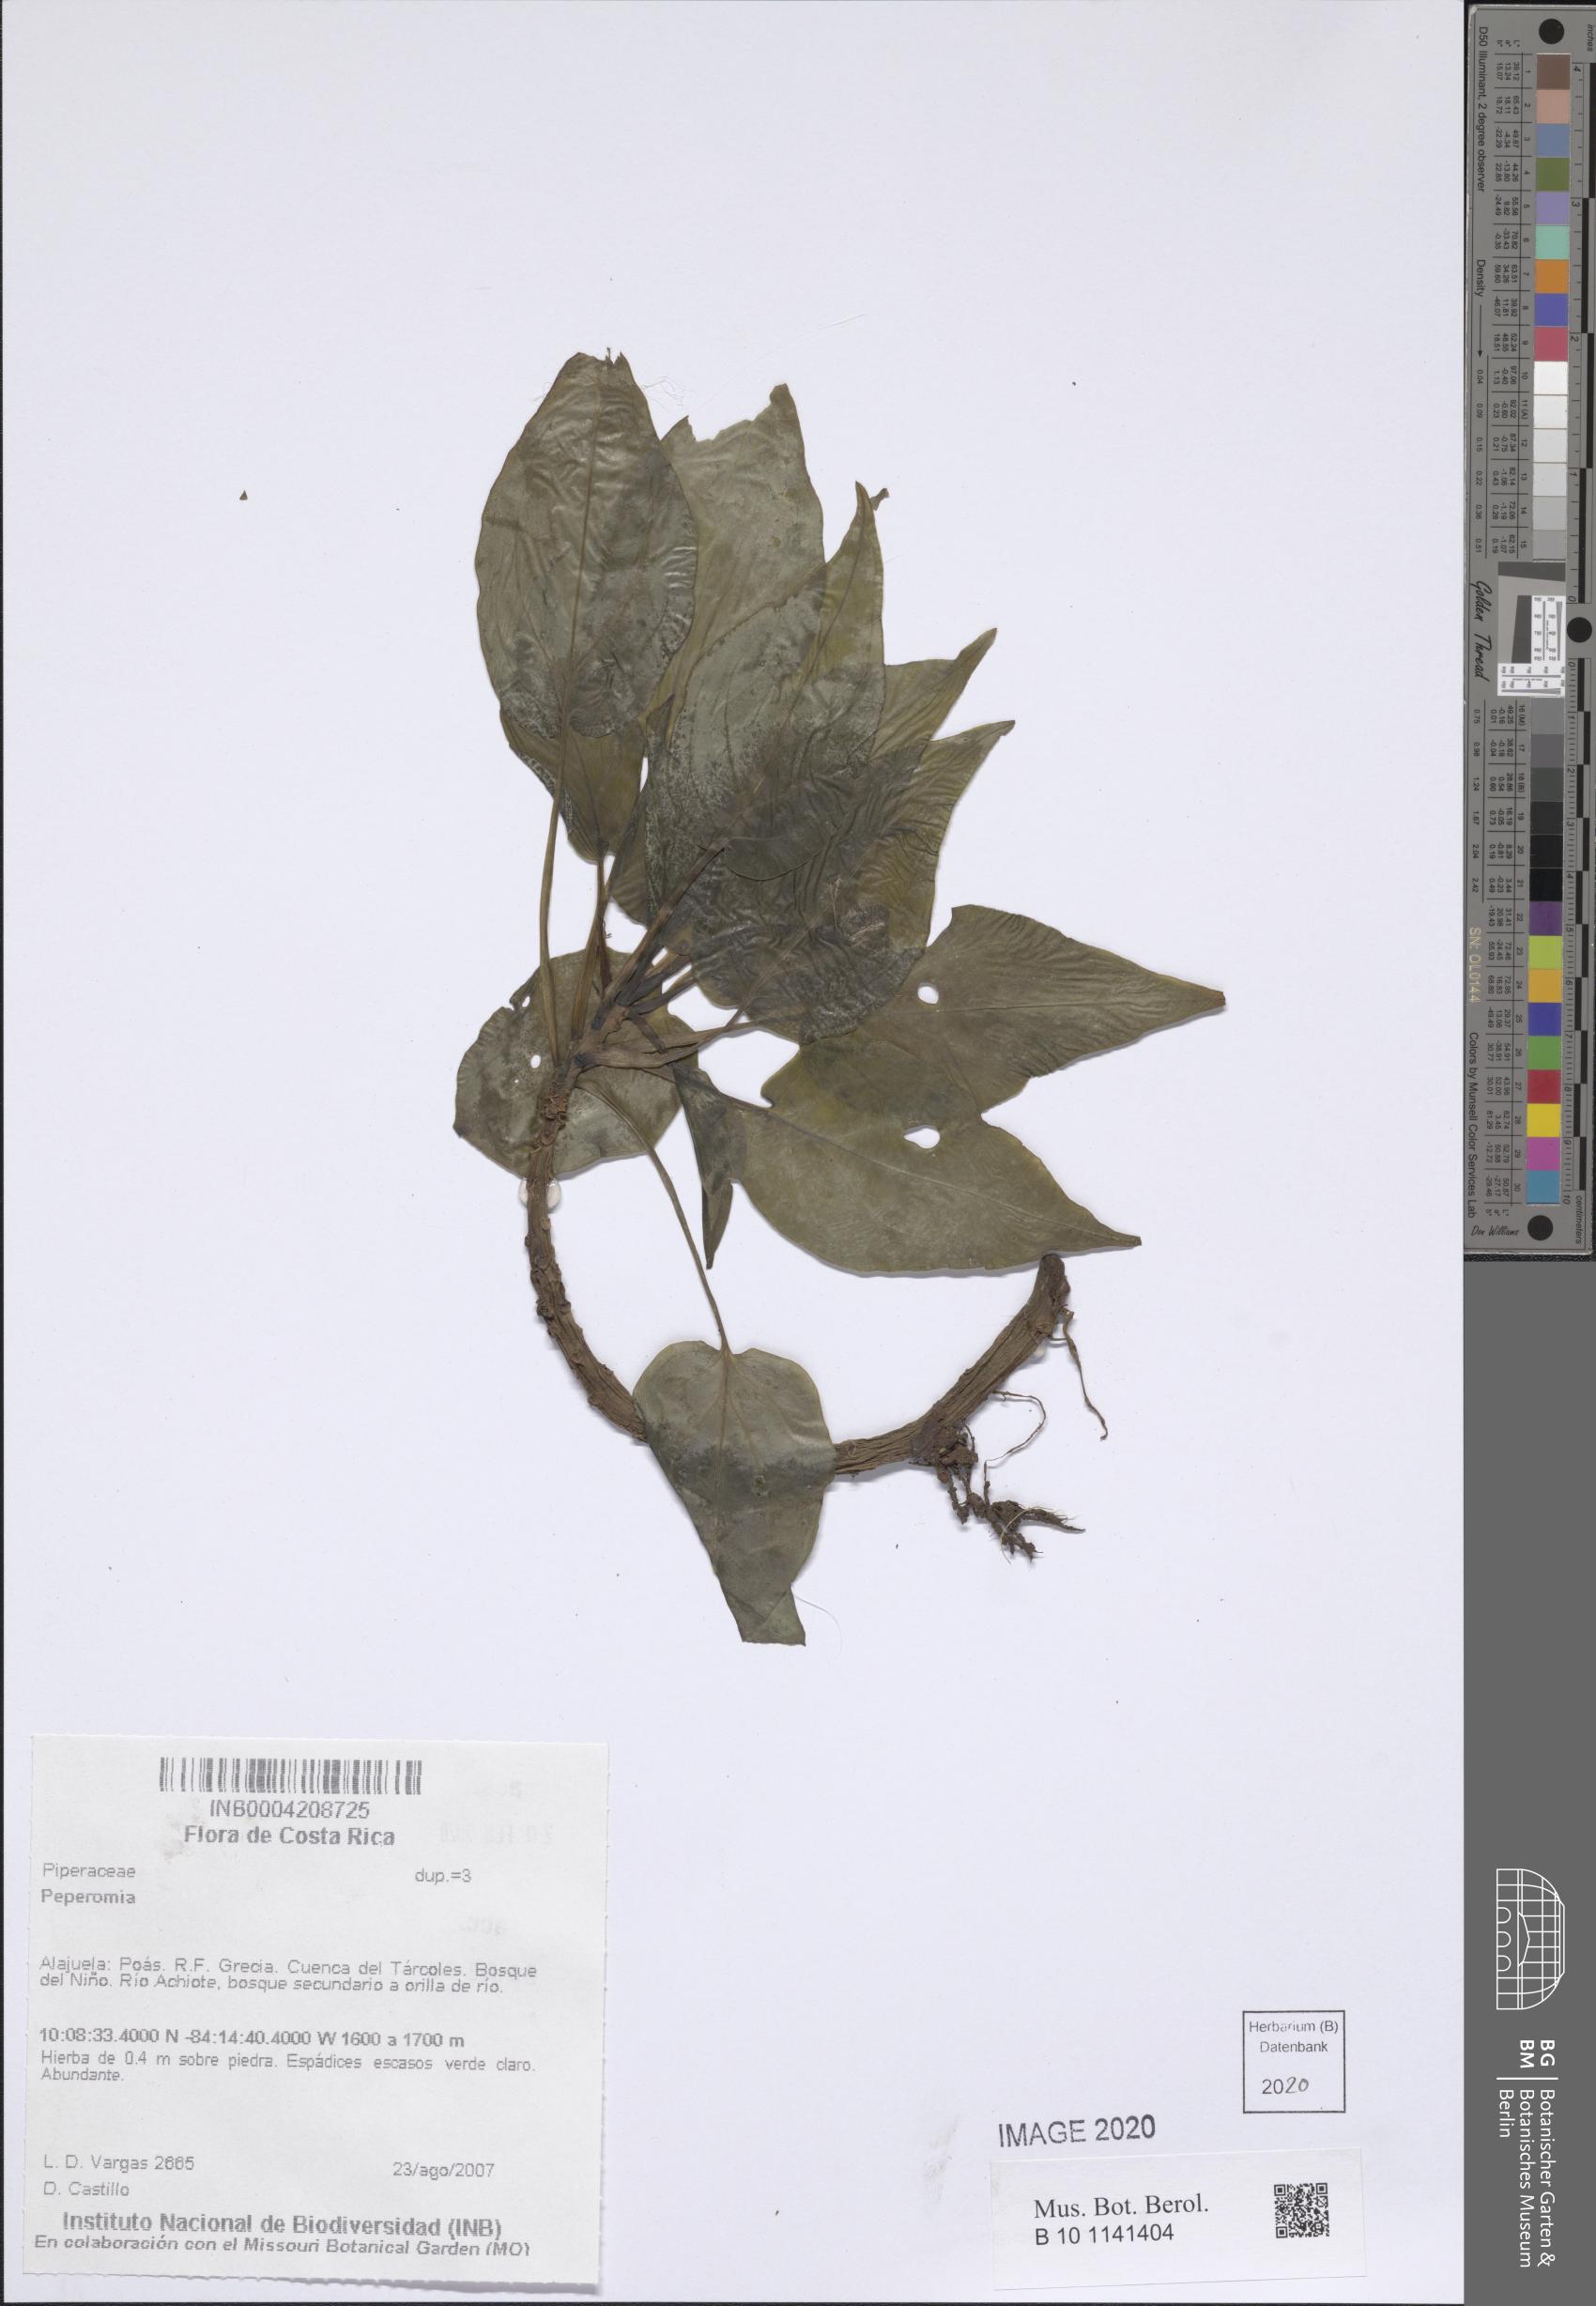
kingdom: Plantae
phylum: Tracheophyta
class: Magnoliopsida
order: Piperales
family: Piperaceae
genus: Peperomia
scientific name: Peperomia
